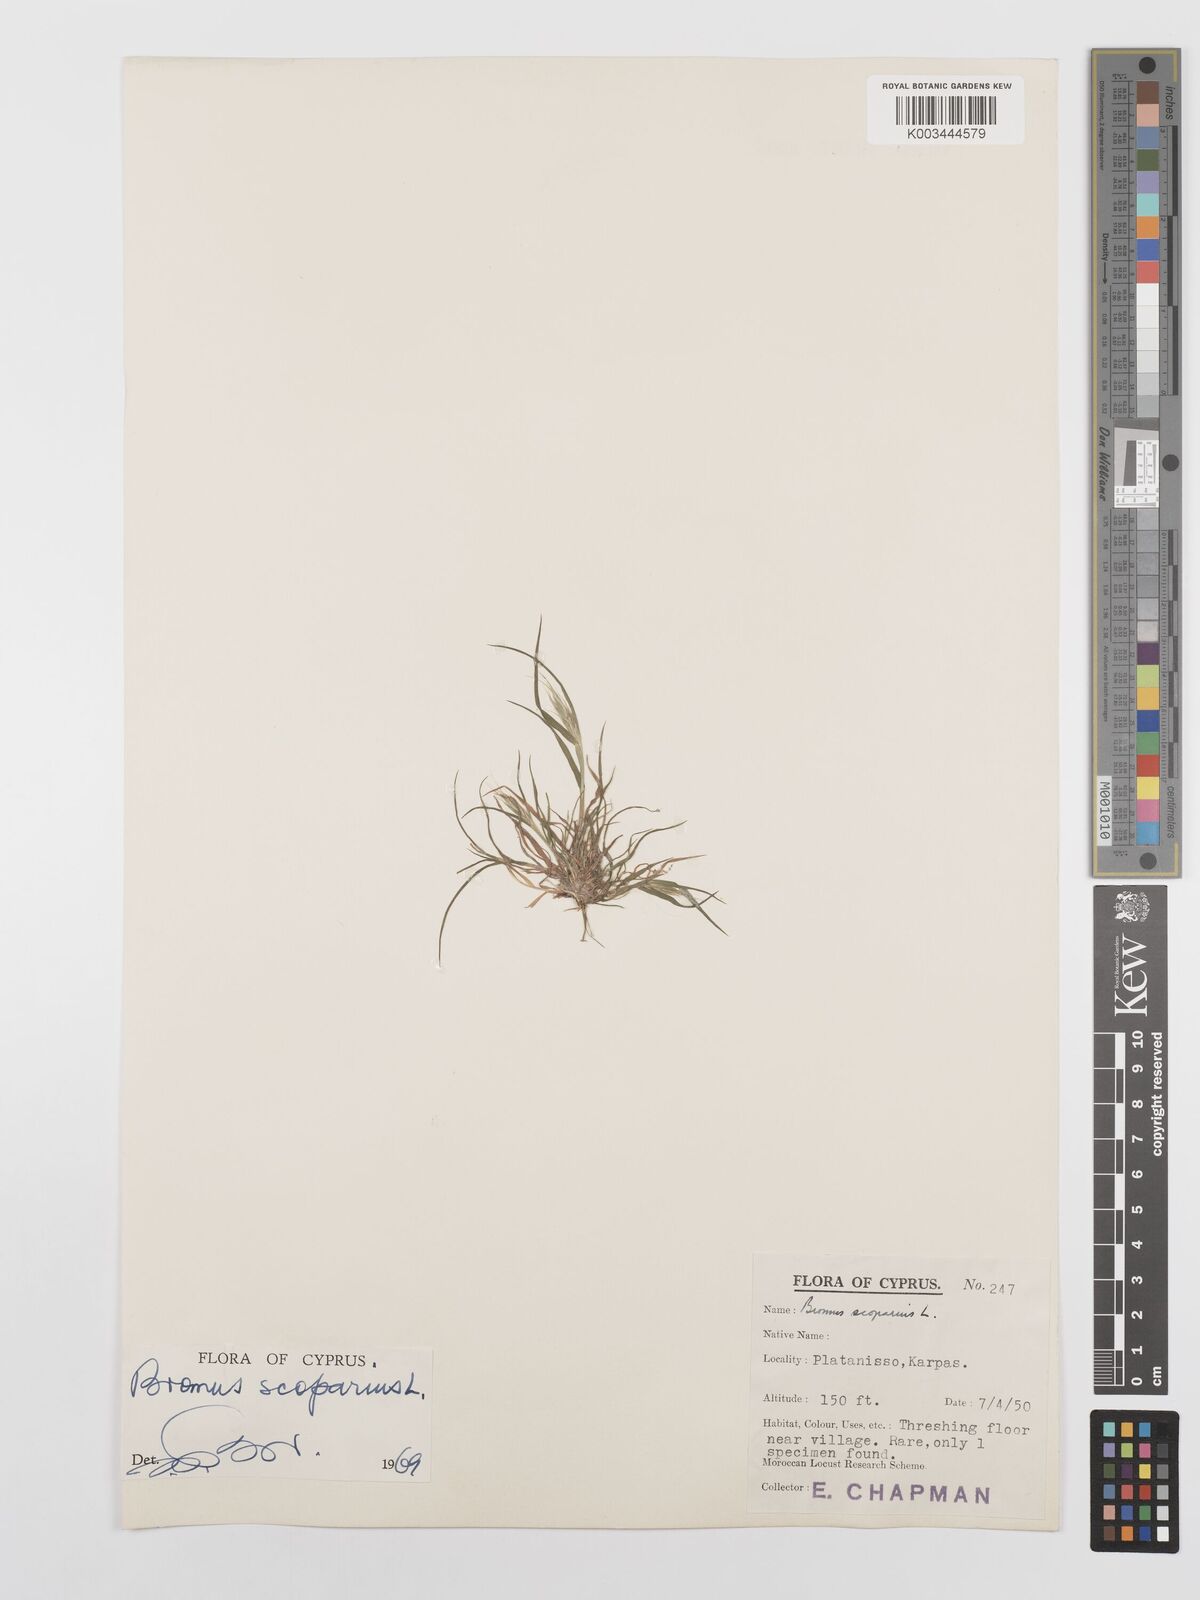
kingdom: Plantae
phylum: Tracheophyta
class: Liliopsida
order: Poales
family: Poaceae
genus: Bromus
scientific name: Bromus scoparius
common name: Broom brome
